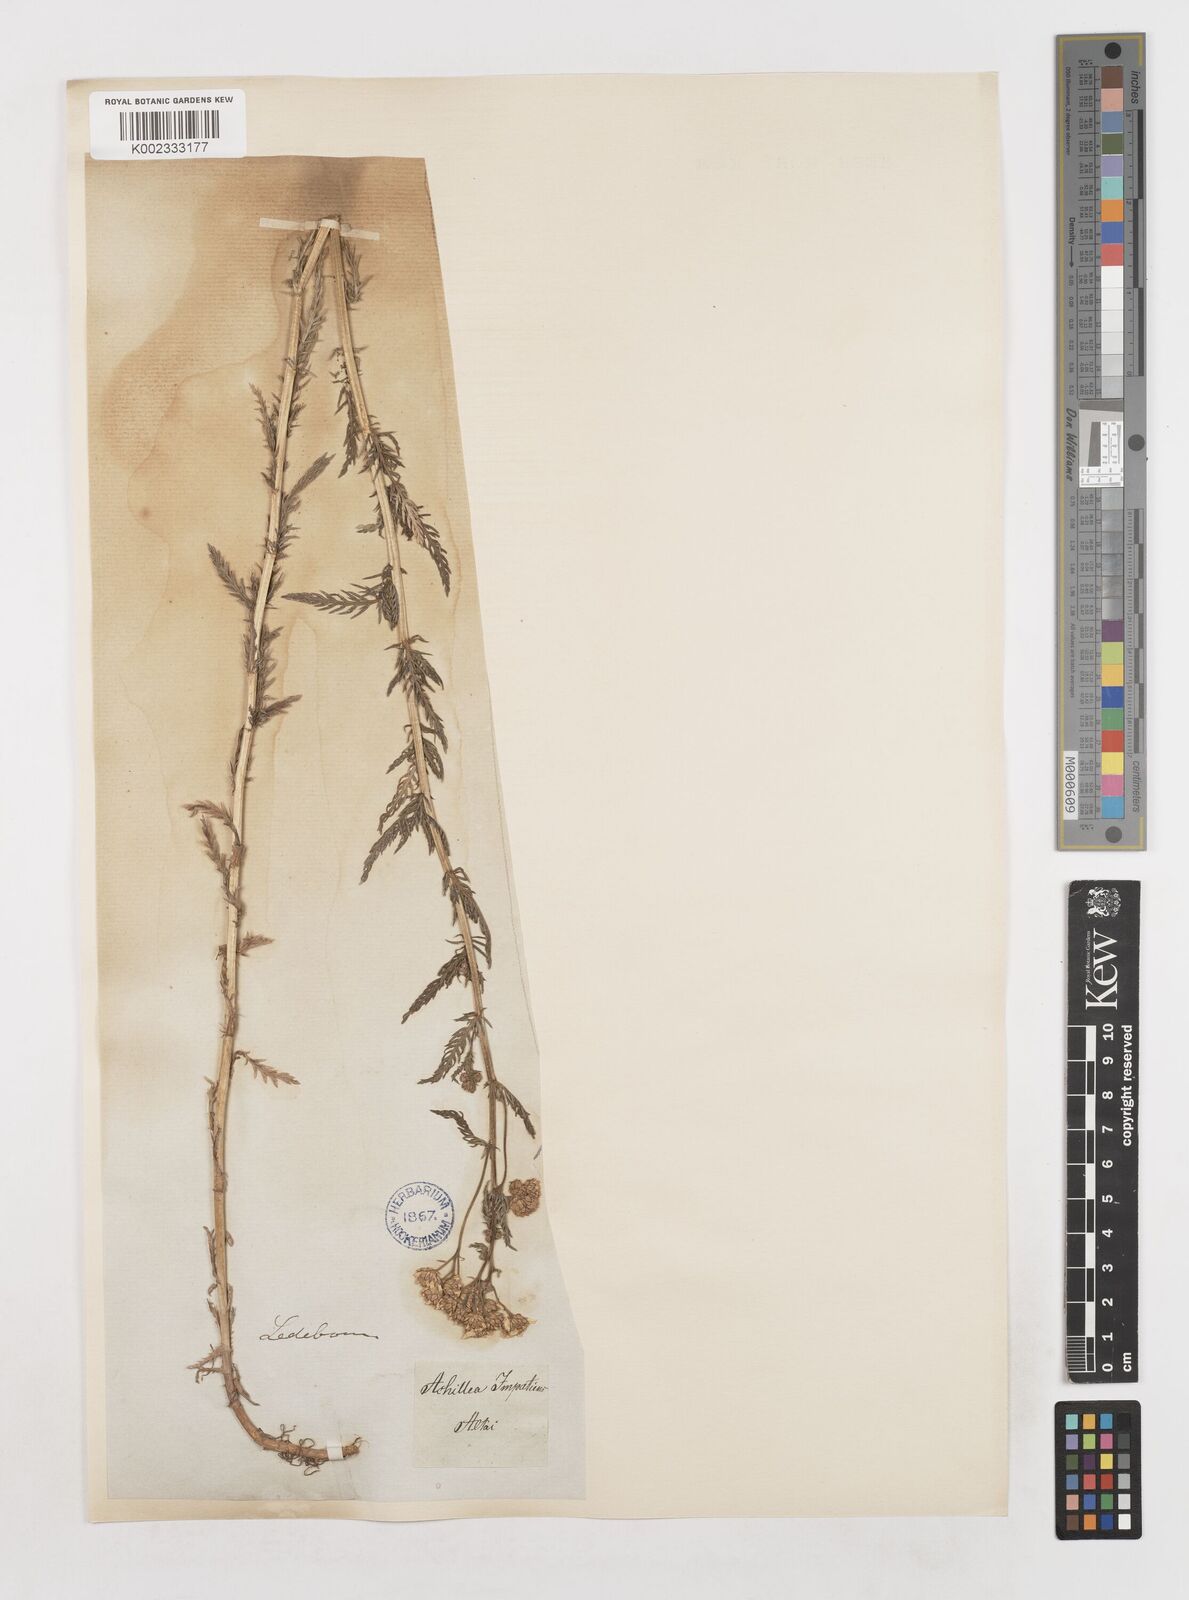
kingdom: Plantae
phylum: Tracheophyta
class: Magnoliopsida
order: Asterales
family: Asteraceae
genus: Achillea
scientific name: Achillea impatiens
